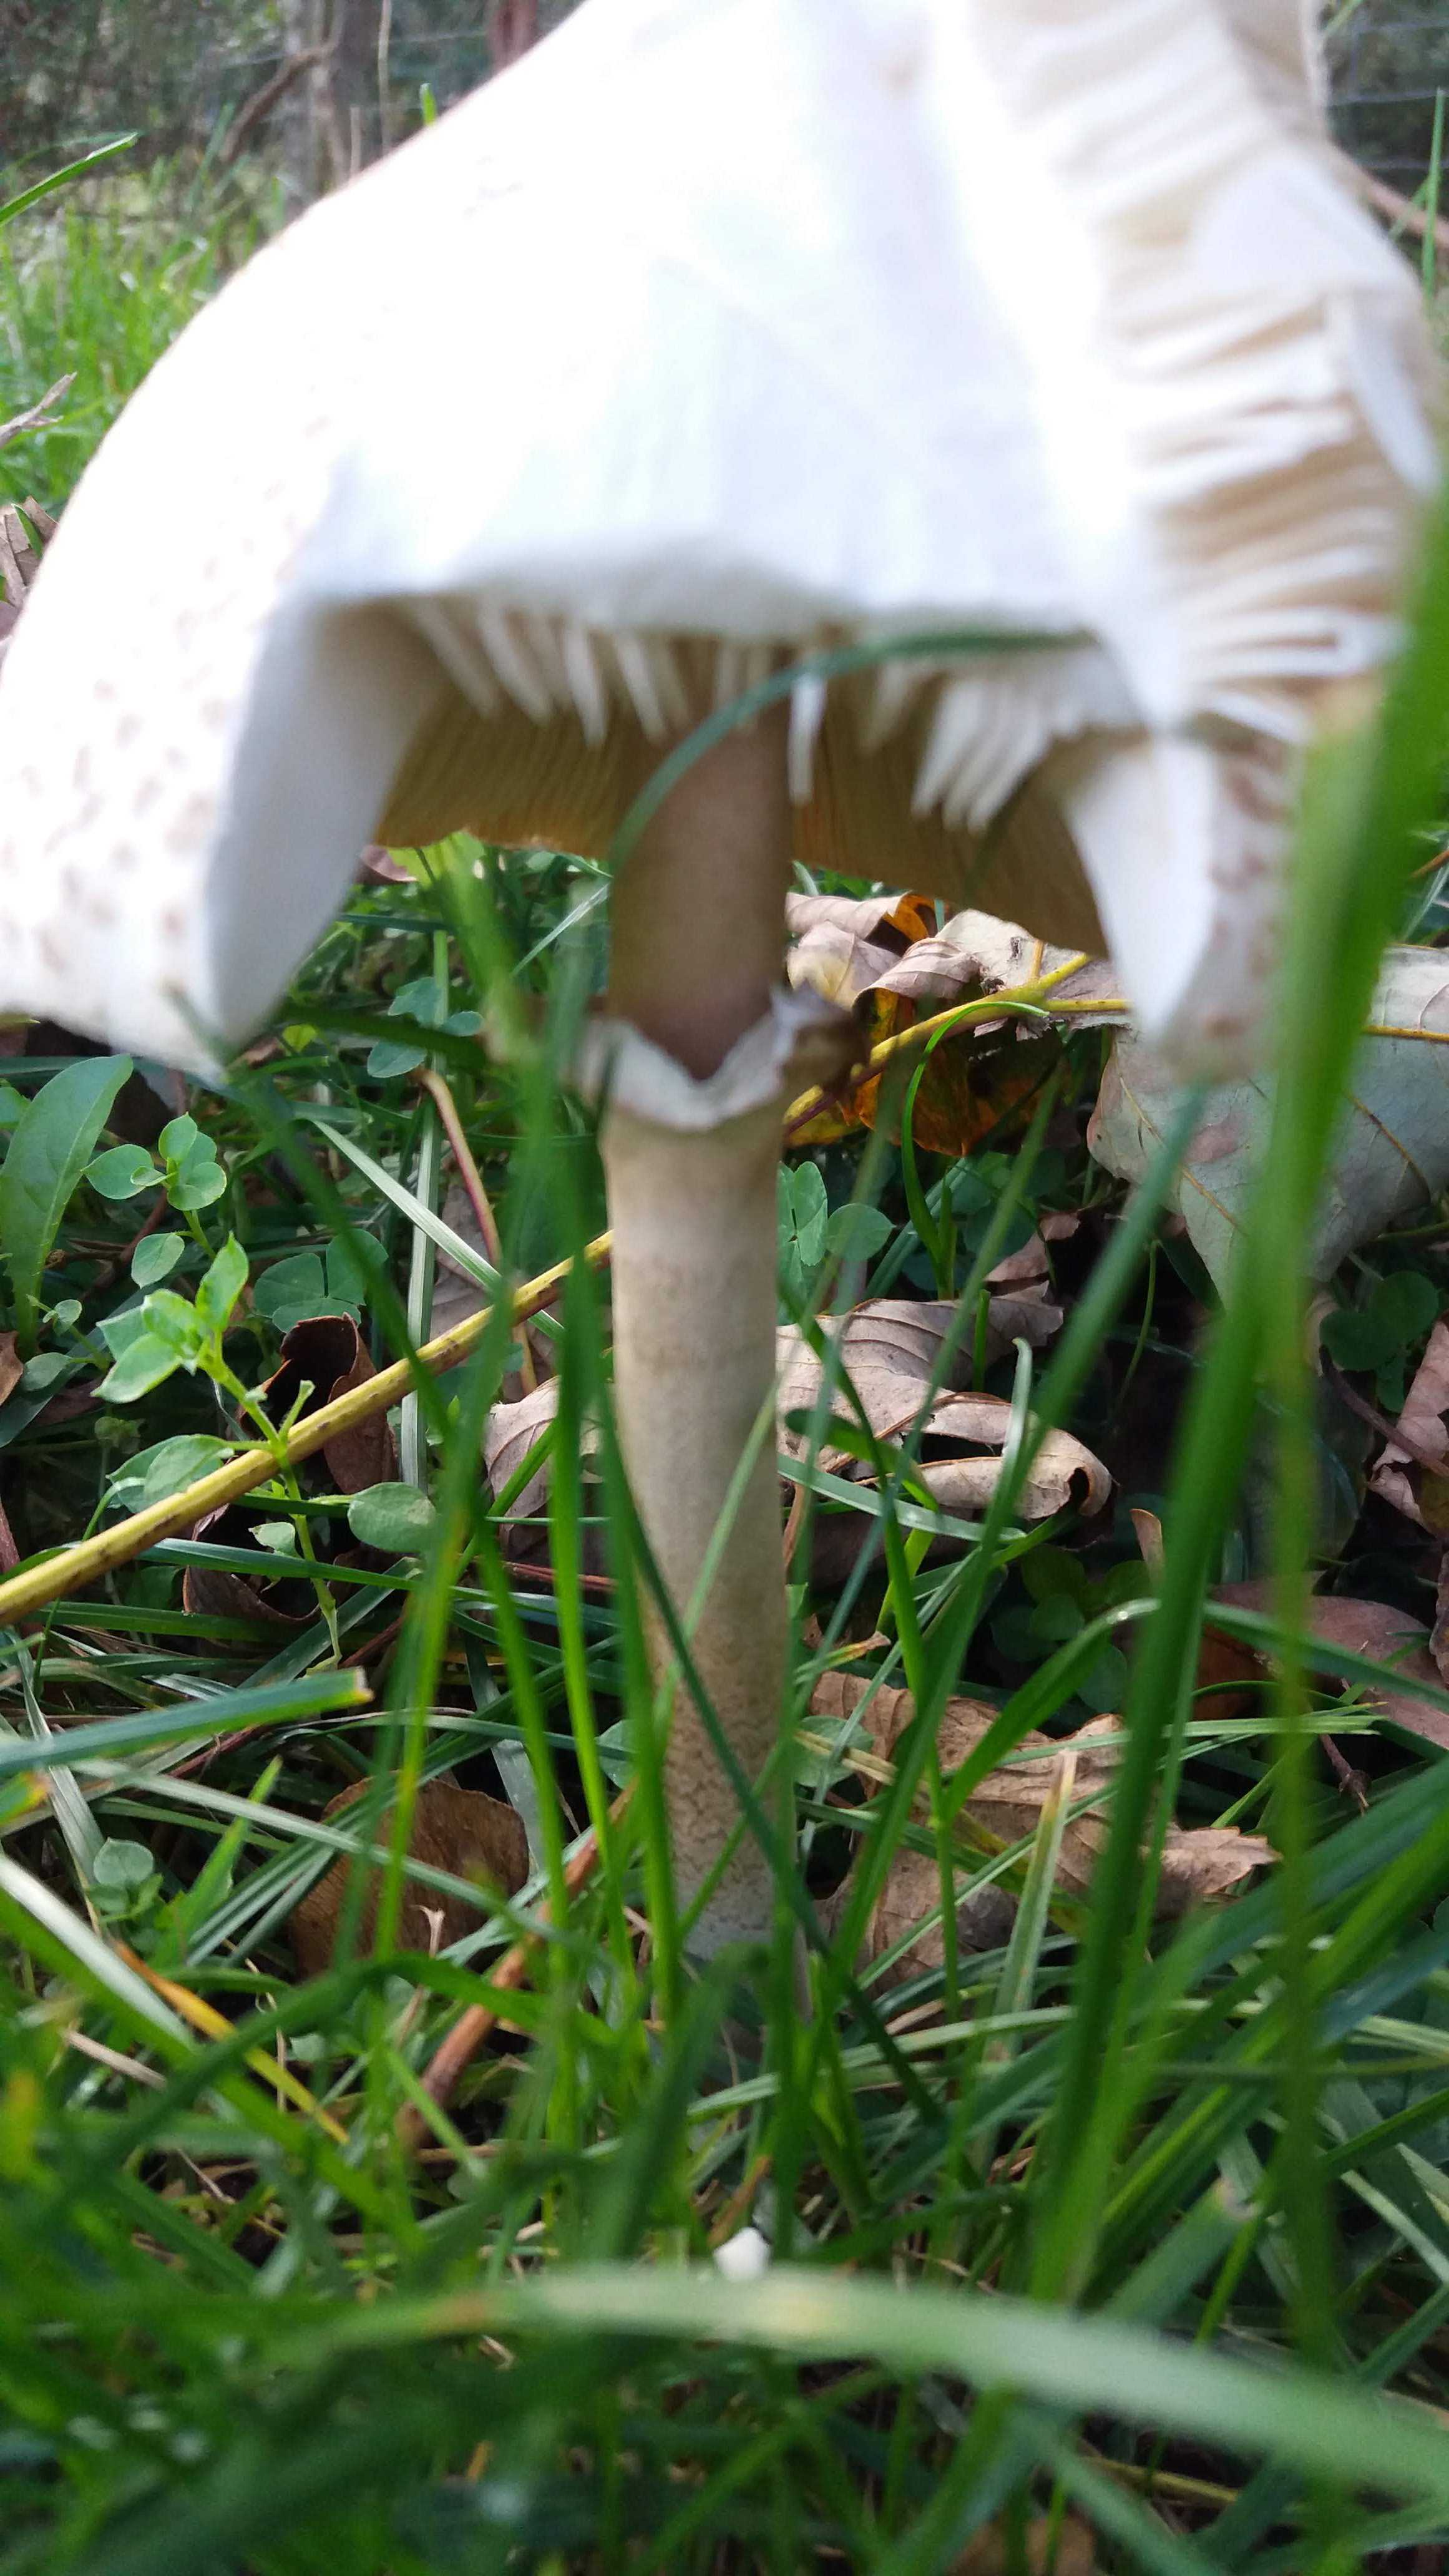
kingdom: Fungi
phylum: Basidiomycota
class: Agaricomycetes
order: Agaricales
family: Agaricaceae
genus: Macrolepiota
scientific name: Macrolepiota mastoidea
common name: puklet kæmpeparasolhat
